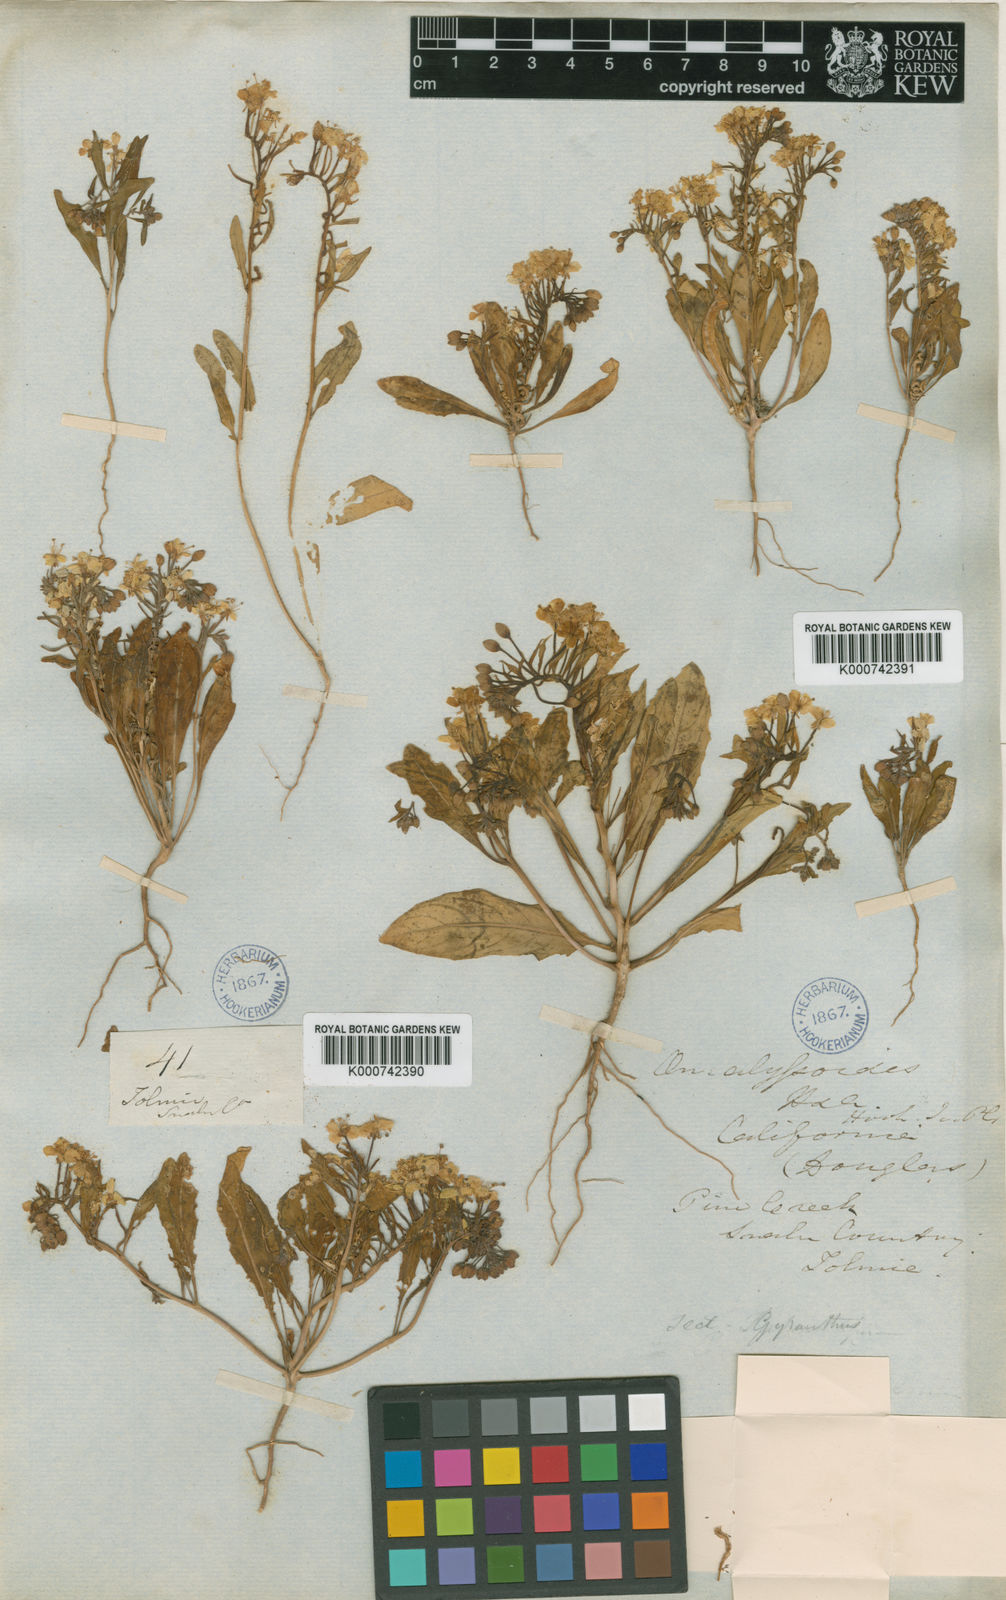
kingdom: Plantae
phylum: Tracheophyta
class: Magnoliopsida
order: Myrtales
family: Onagraceae
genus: Eremothera
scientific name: Eremothera boothii
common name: Booth's evening primrose
